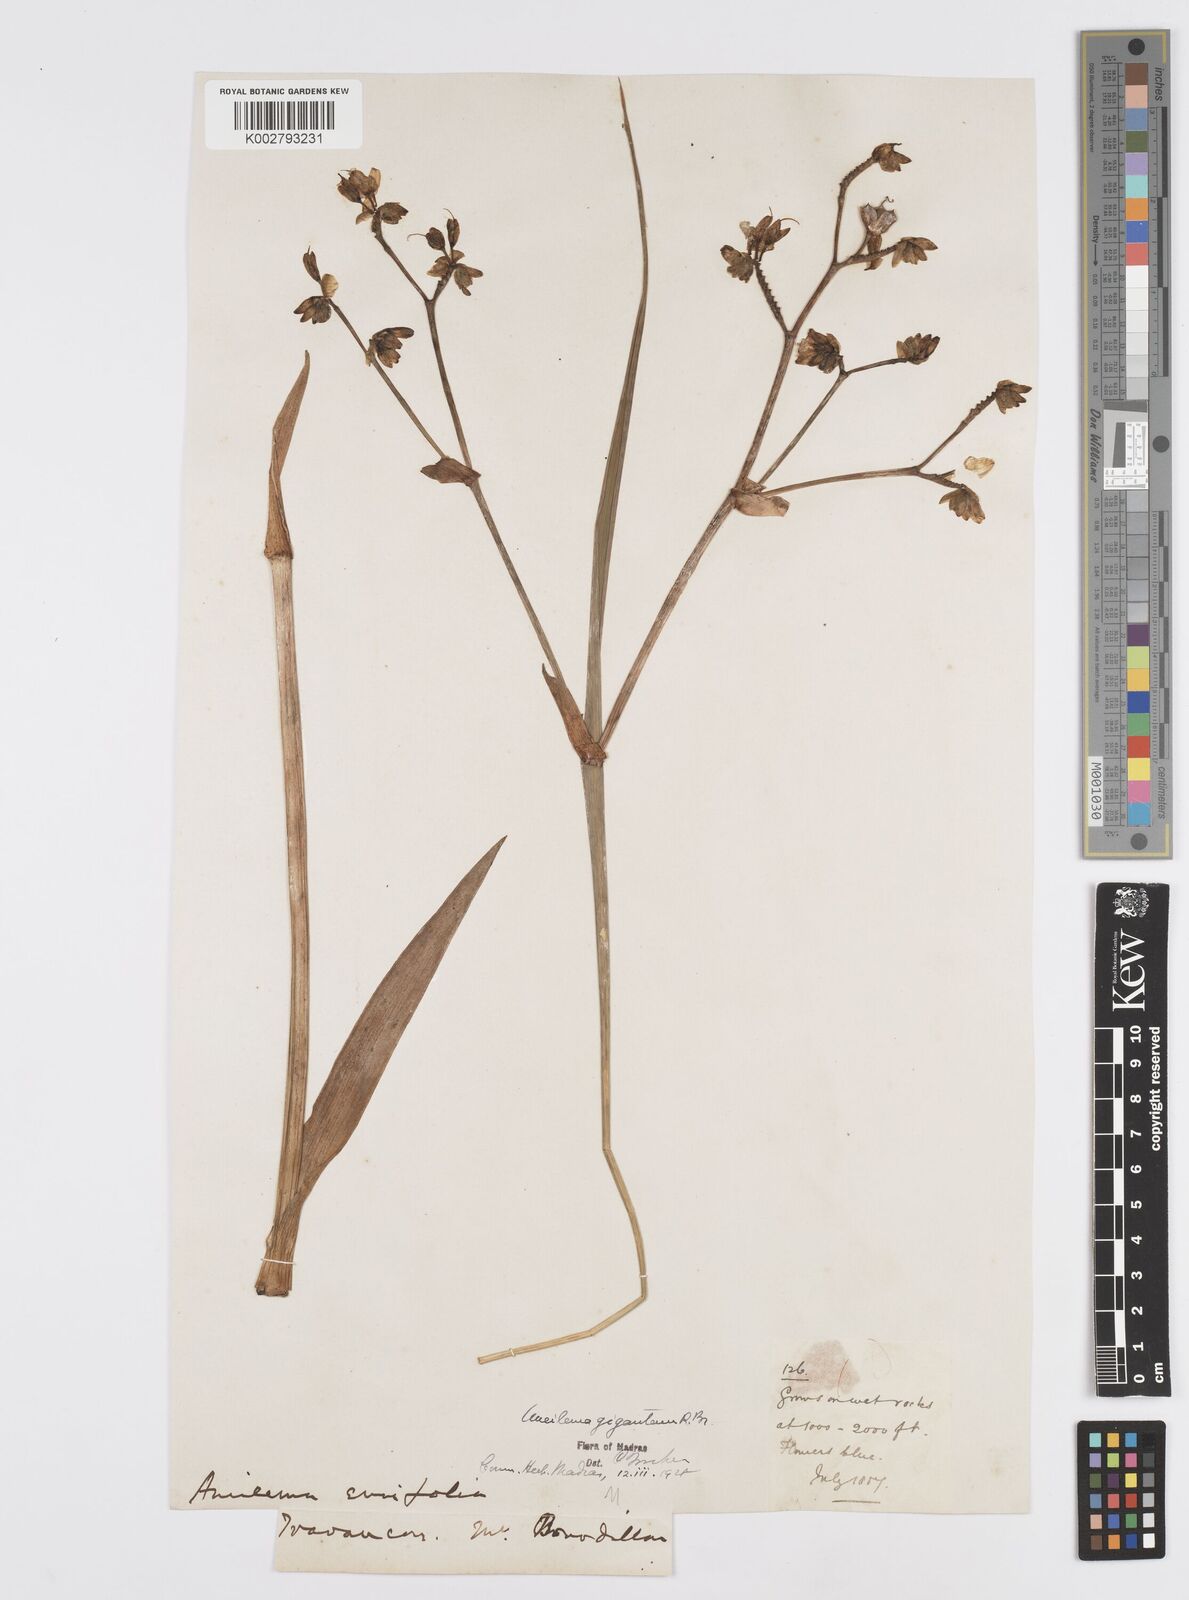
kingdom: Plantae
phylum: Tracheophyta
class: Liliopsida
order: Commelinales
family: Commelinaceae
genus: Murdannia
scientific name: Murdannia gigantea
